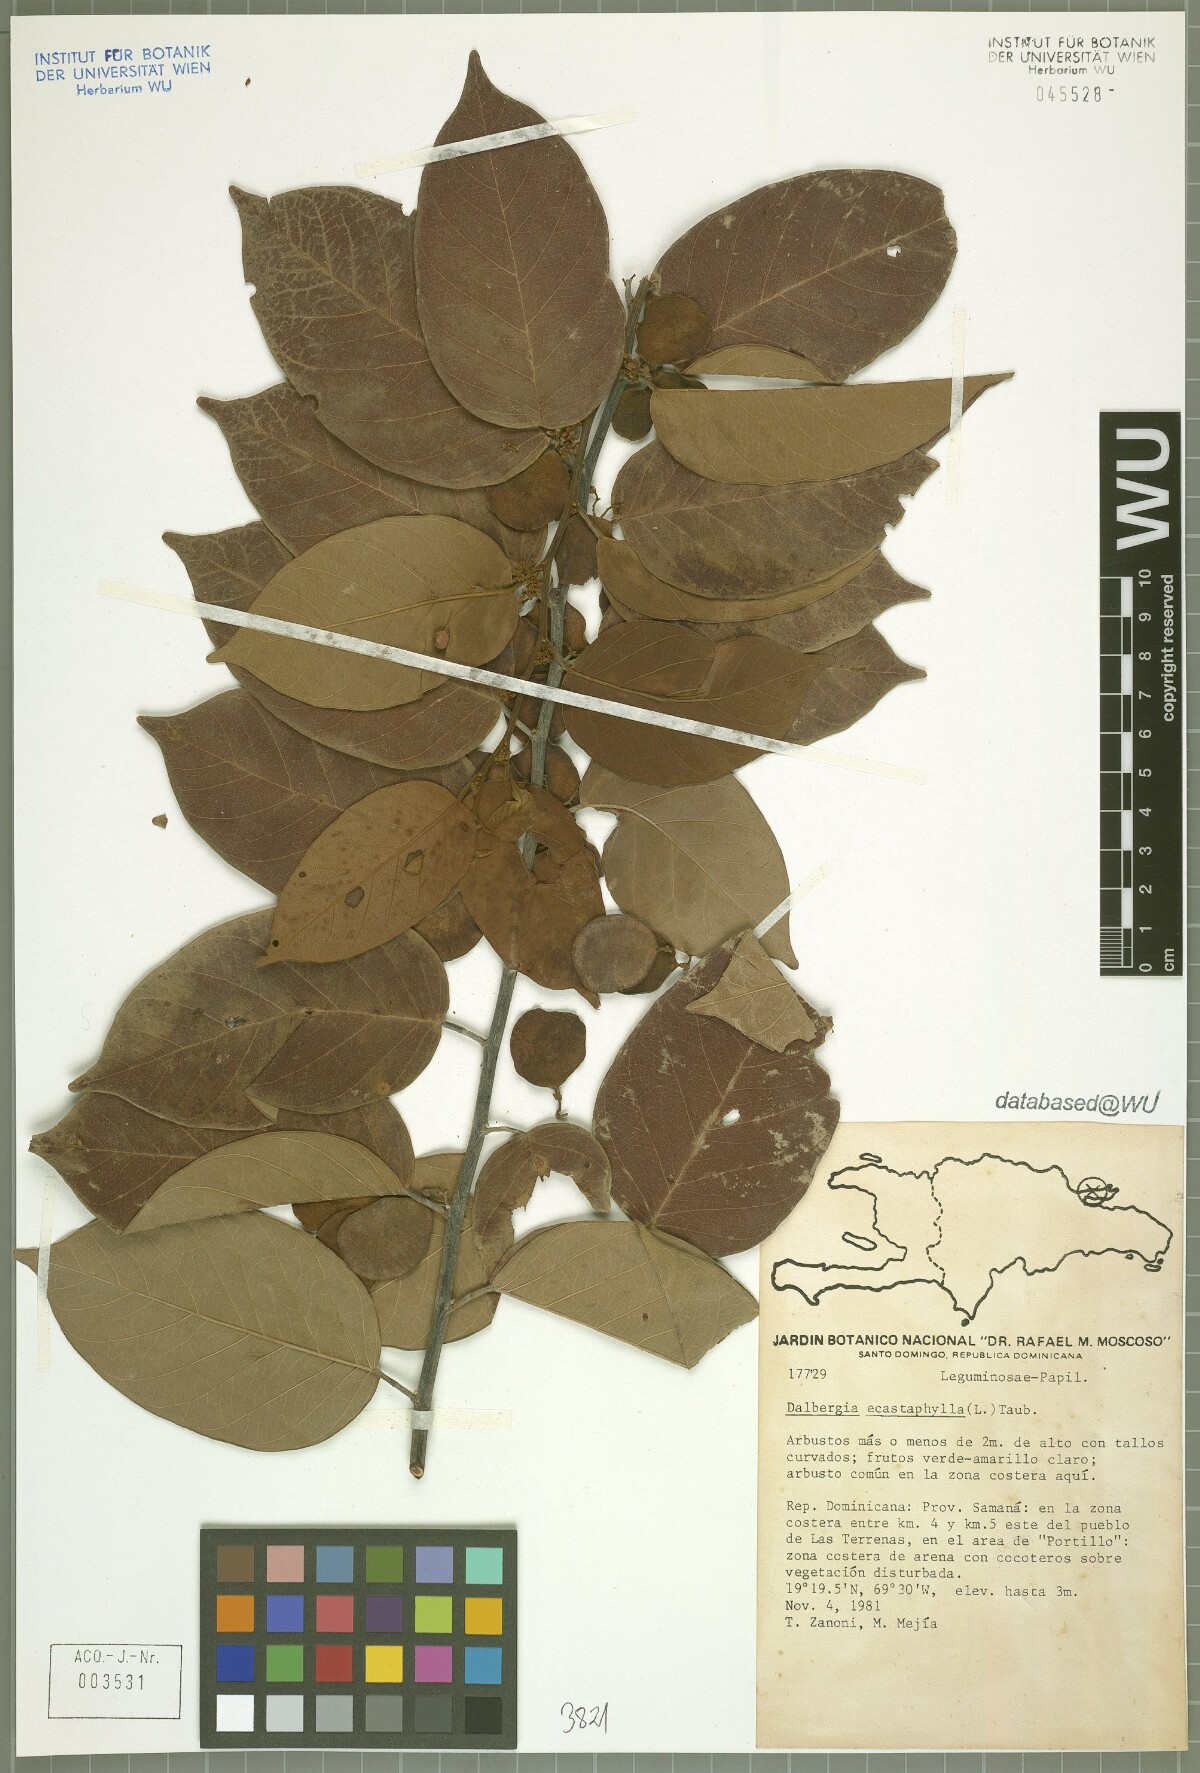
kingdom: Plantae
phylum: Tracheophyta
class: Magnoliopsida
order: Fabales
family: Fabaceae
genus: Dalbergia
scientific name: Dalbergia ecastaphyllum
